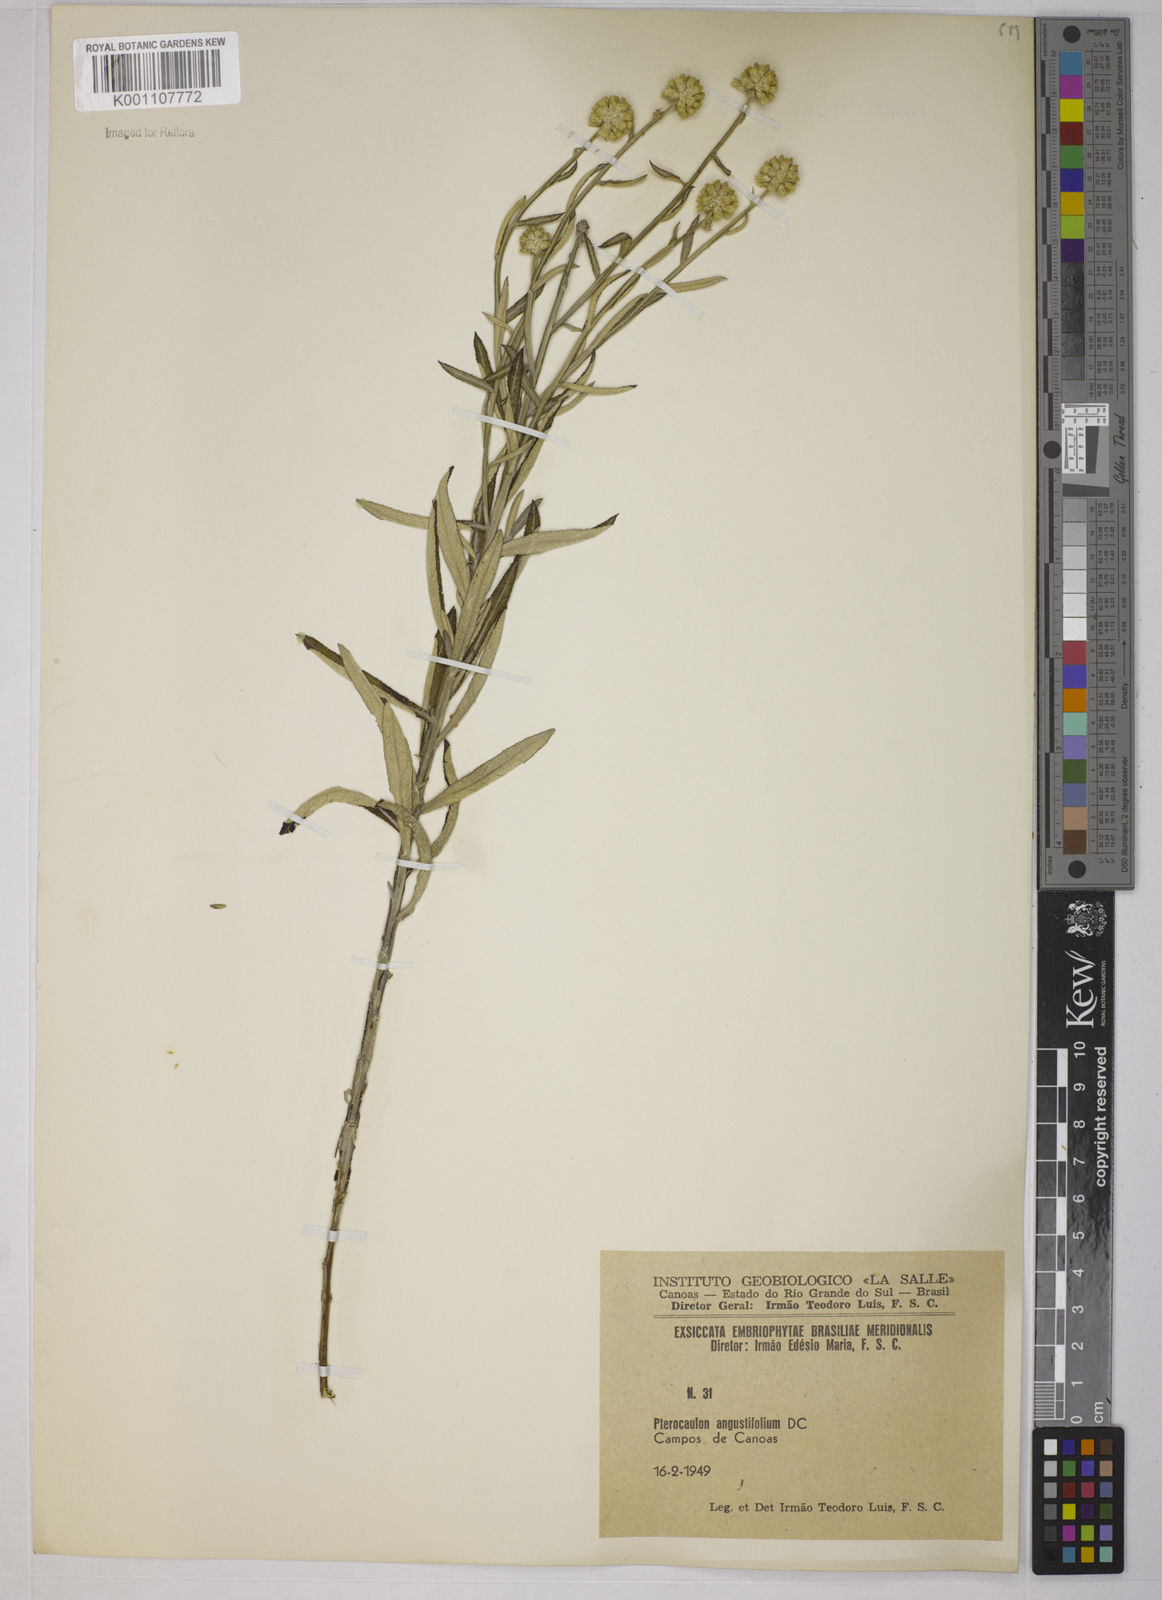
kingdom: Plantae
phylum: Tracheophyta
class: Magnoliopsida
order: Asterales
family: Asteraceae
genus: Pterocaulon
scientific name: Pterocaulon angustifolium
